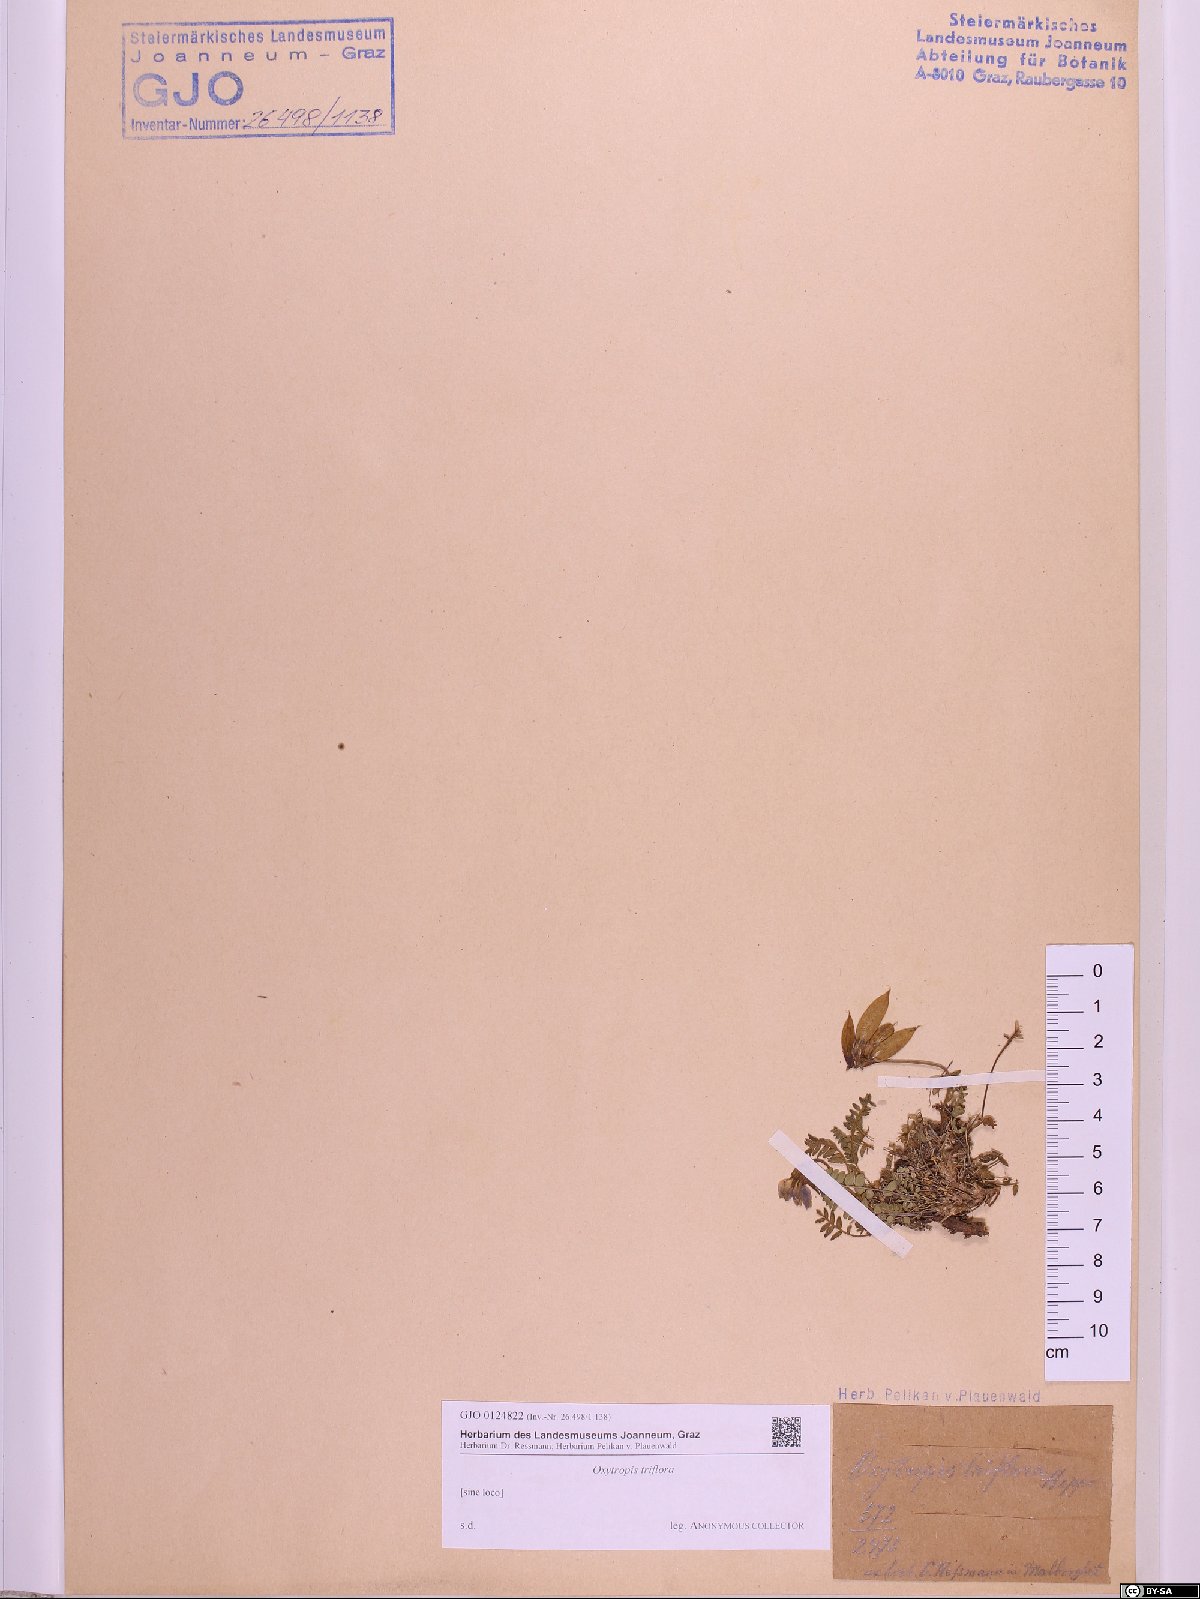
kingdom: Plantae
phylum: Tracheophyta
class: Magnoliopsida
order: Fabales
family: Fabaceae
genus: Oxytropis
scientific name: Oxytropis triflora
